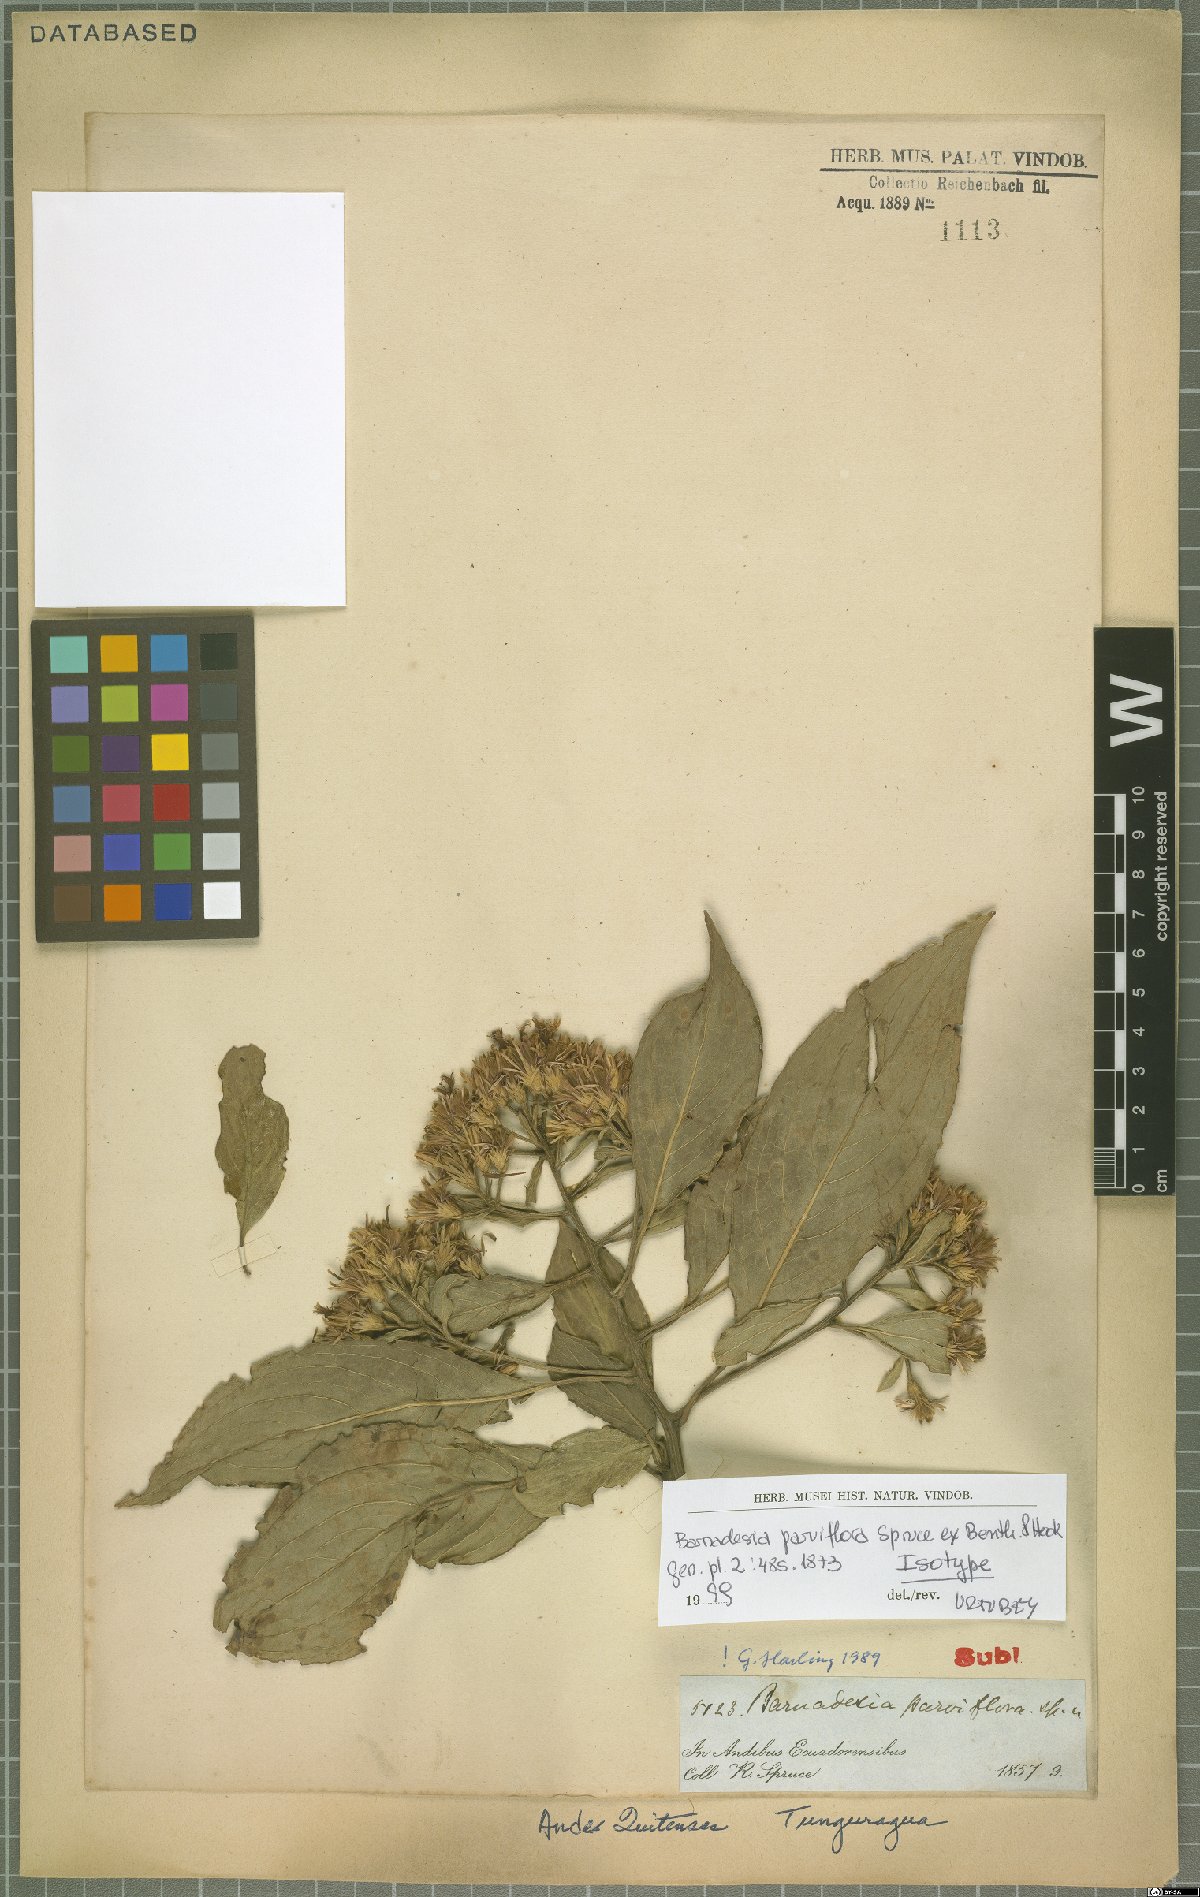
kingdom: Plantae
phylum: Tracheophyta
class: Magnoliopsida
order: Asterales
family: Asteraceae
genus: Barnadesia
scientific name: Barnadesia parviflora
